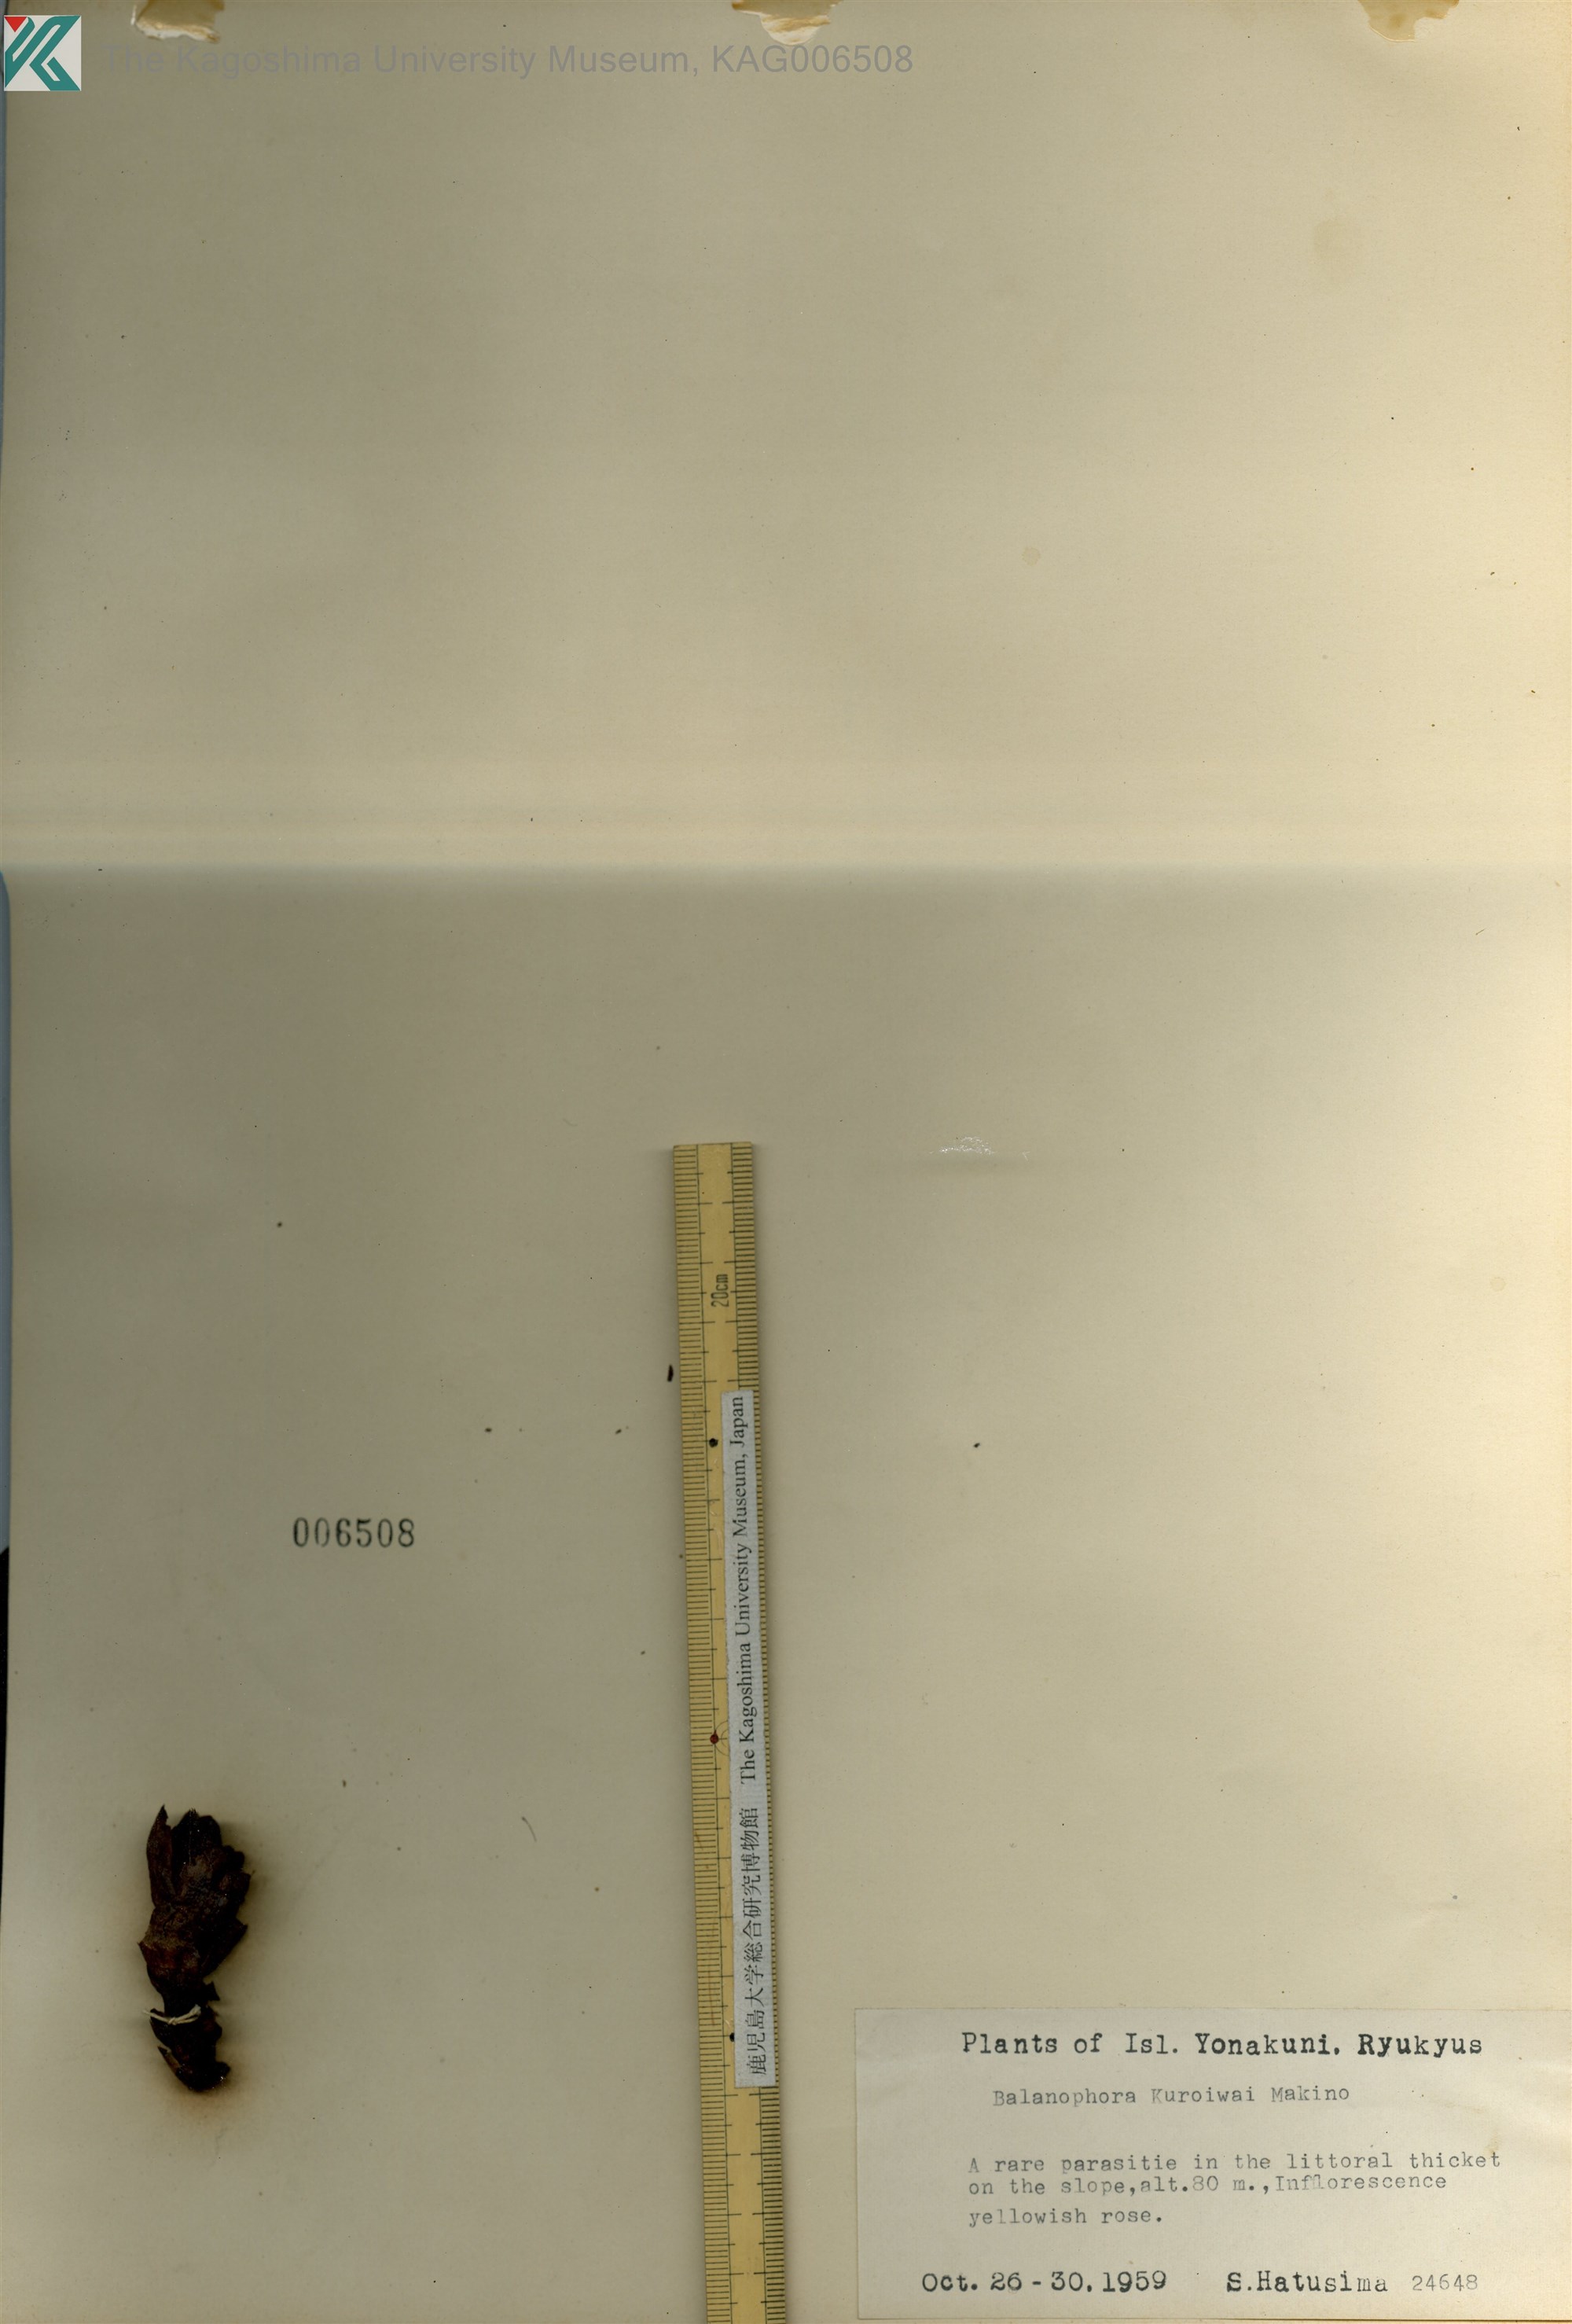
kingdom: Plantae
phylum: Tracheophyta
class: Magnoliopsida
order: Santalales
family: Balanophoraceae
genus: Balanophora
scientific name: Balanophora fungosa
